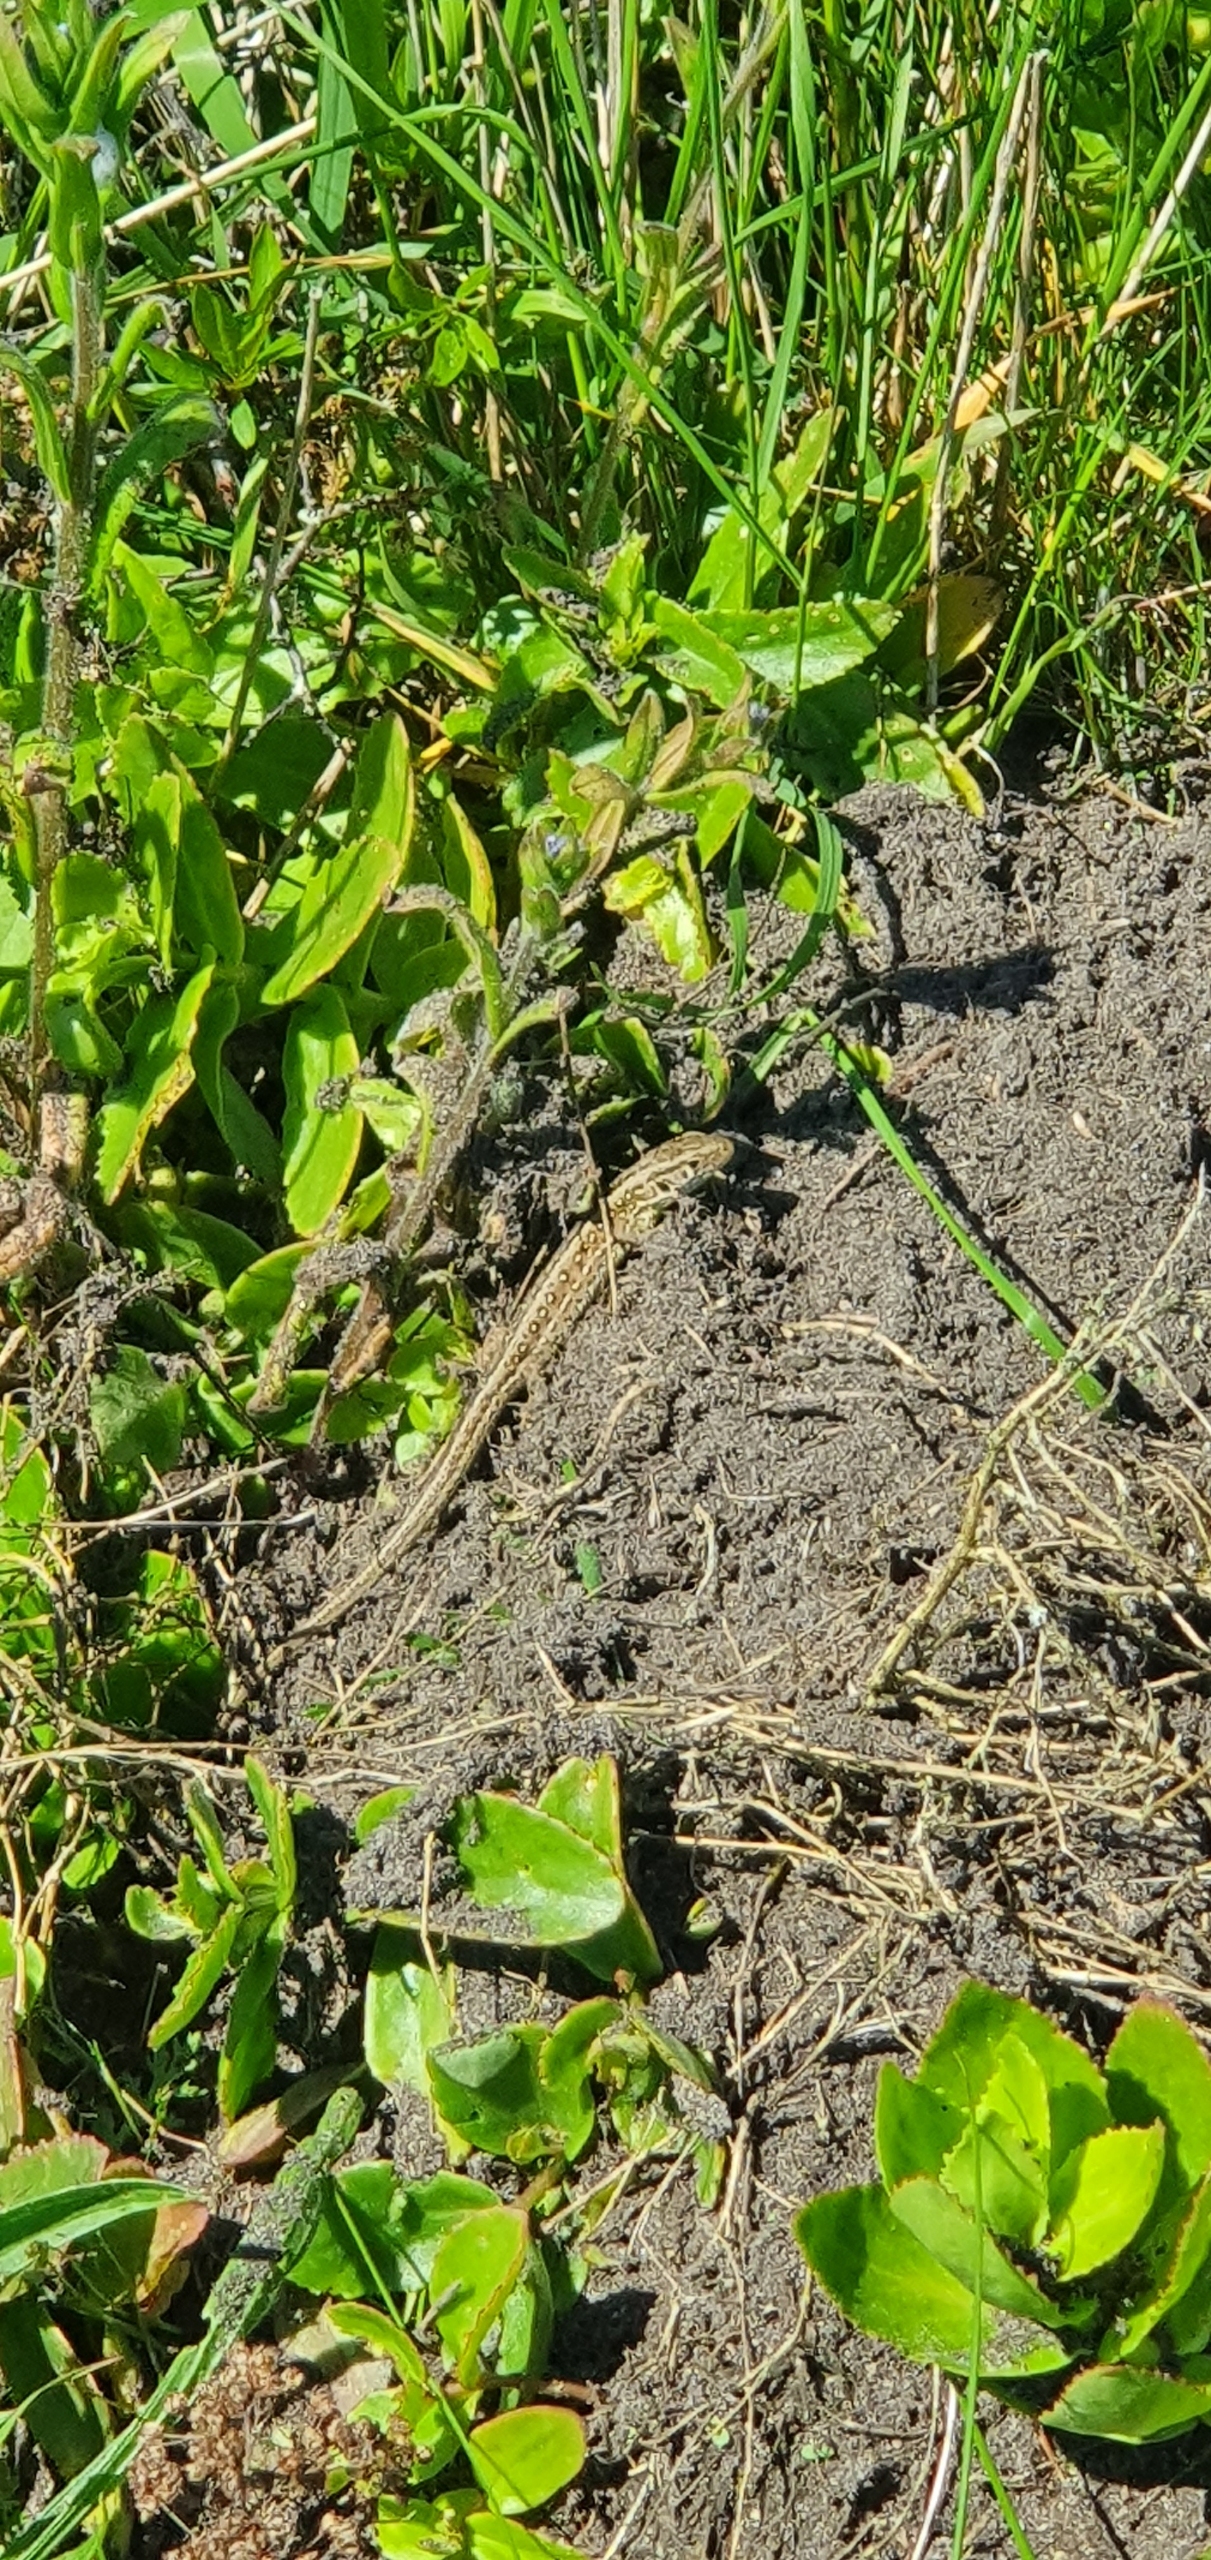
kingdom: Animalia
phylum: Chordata
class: Squamata
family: Lacertidae
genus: Lacerta
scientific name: Lacerta agilis
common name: Markfirben
